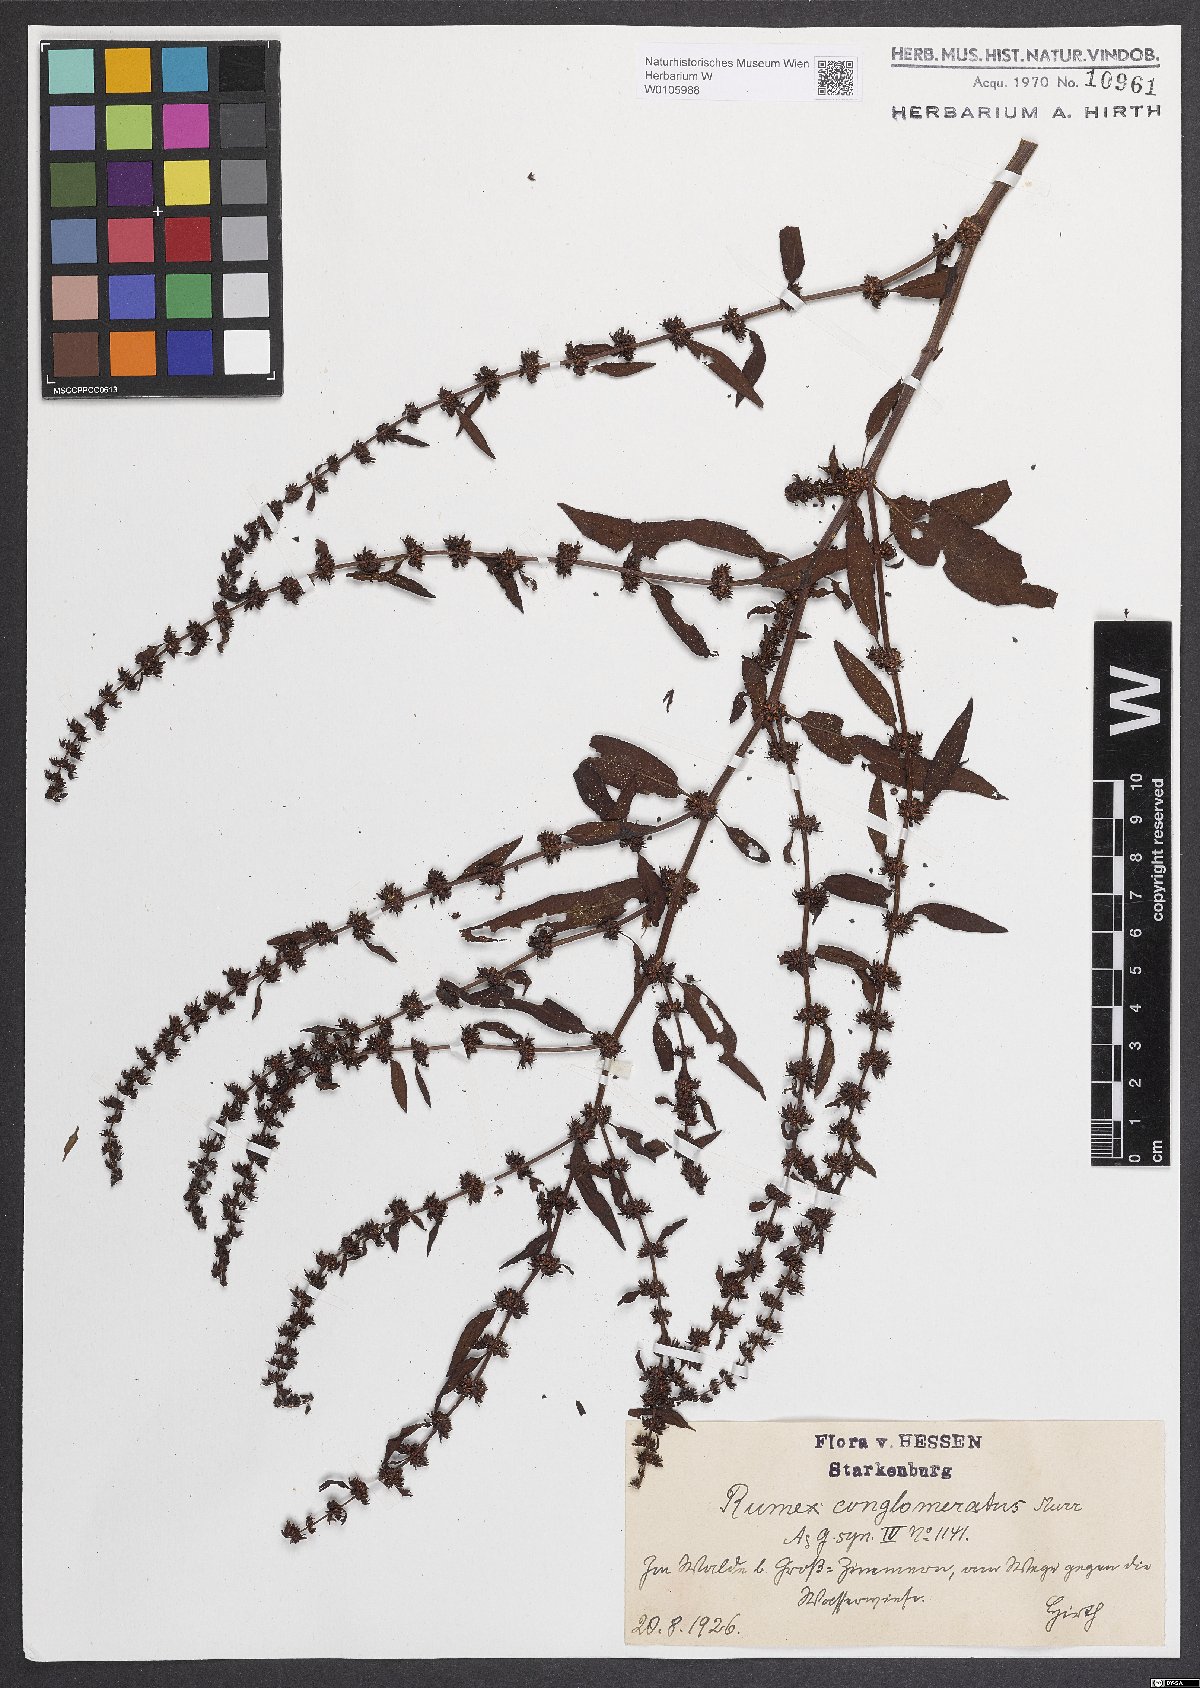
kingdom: Plantae
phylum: Tracheophyta
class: Magnoliopsida
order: Caryophyllales
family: Polygonaceae
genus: Rumex
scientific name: Rumex conglomeratus
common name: Clustered dock
